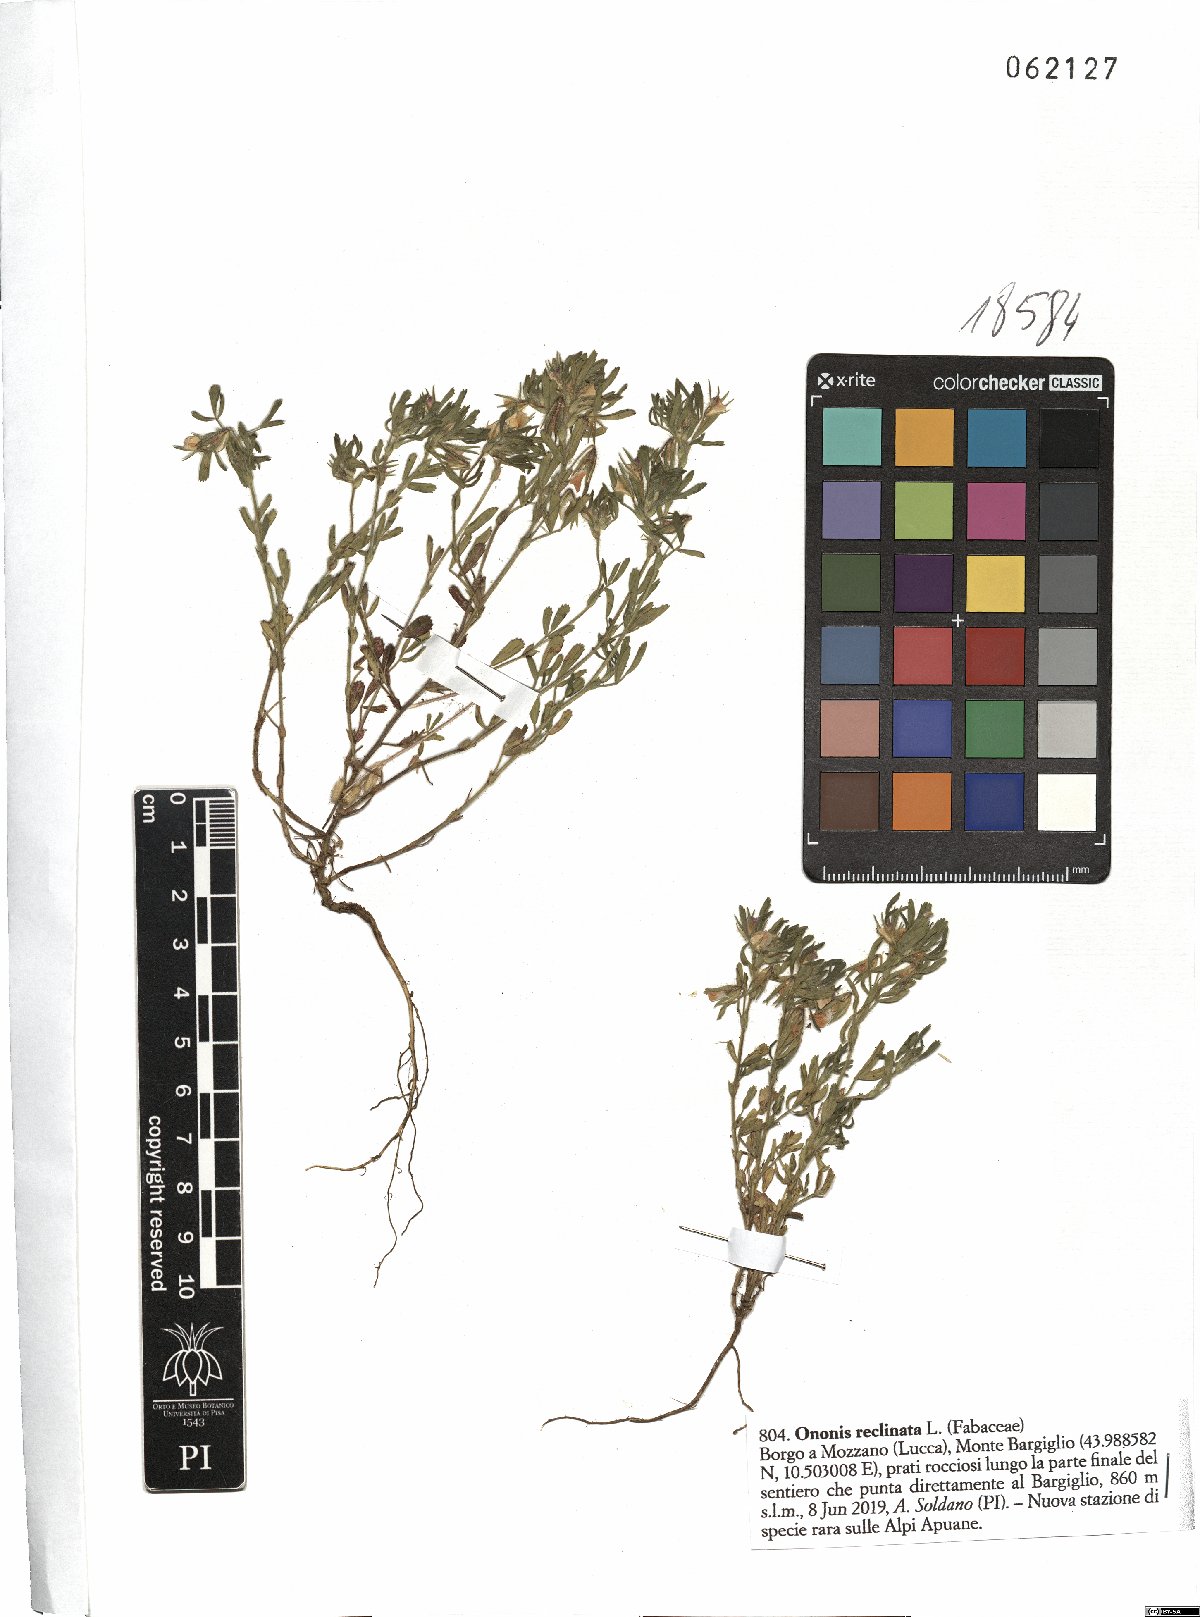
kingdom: Plantae
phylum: Tracheophyta
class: Magnoliopsida
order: Fabales
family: Fabaceae
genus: Ononis
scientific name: Ononis reclinata
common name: Small restharrow
